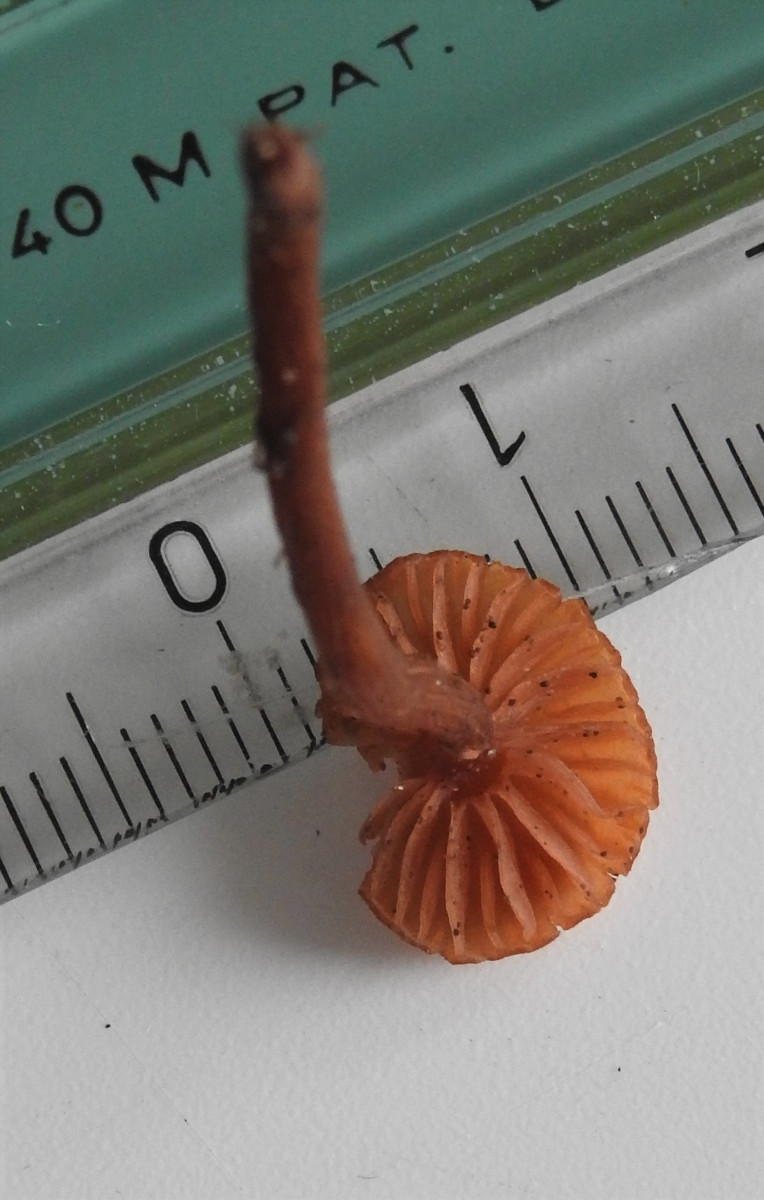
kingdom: Fungi
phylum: Basidiomycota
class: Agaricomycetes
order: Agaricales
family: Hydnangiaceae
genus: Laccaria
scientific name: Laccaria laccata
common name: rød ametysthat
